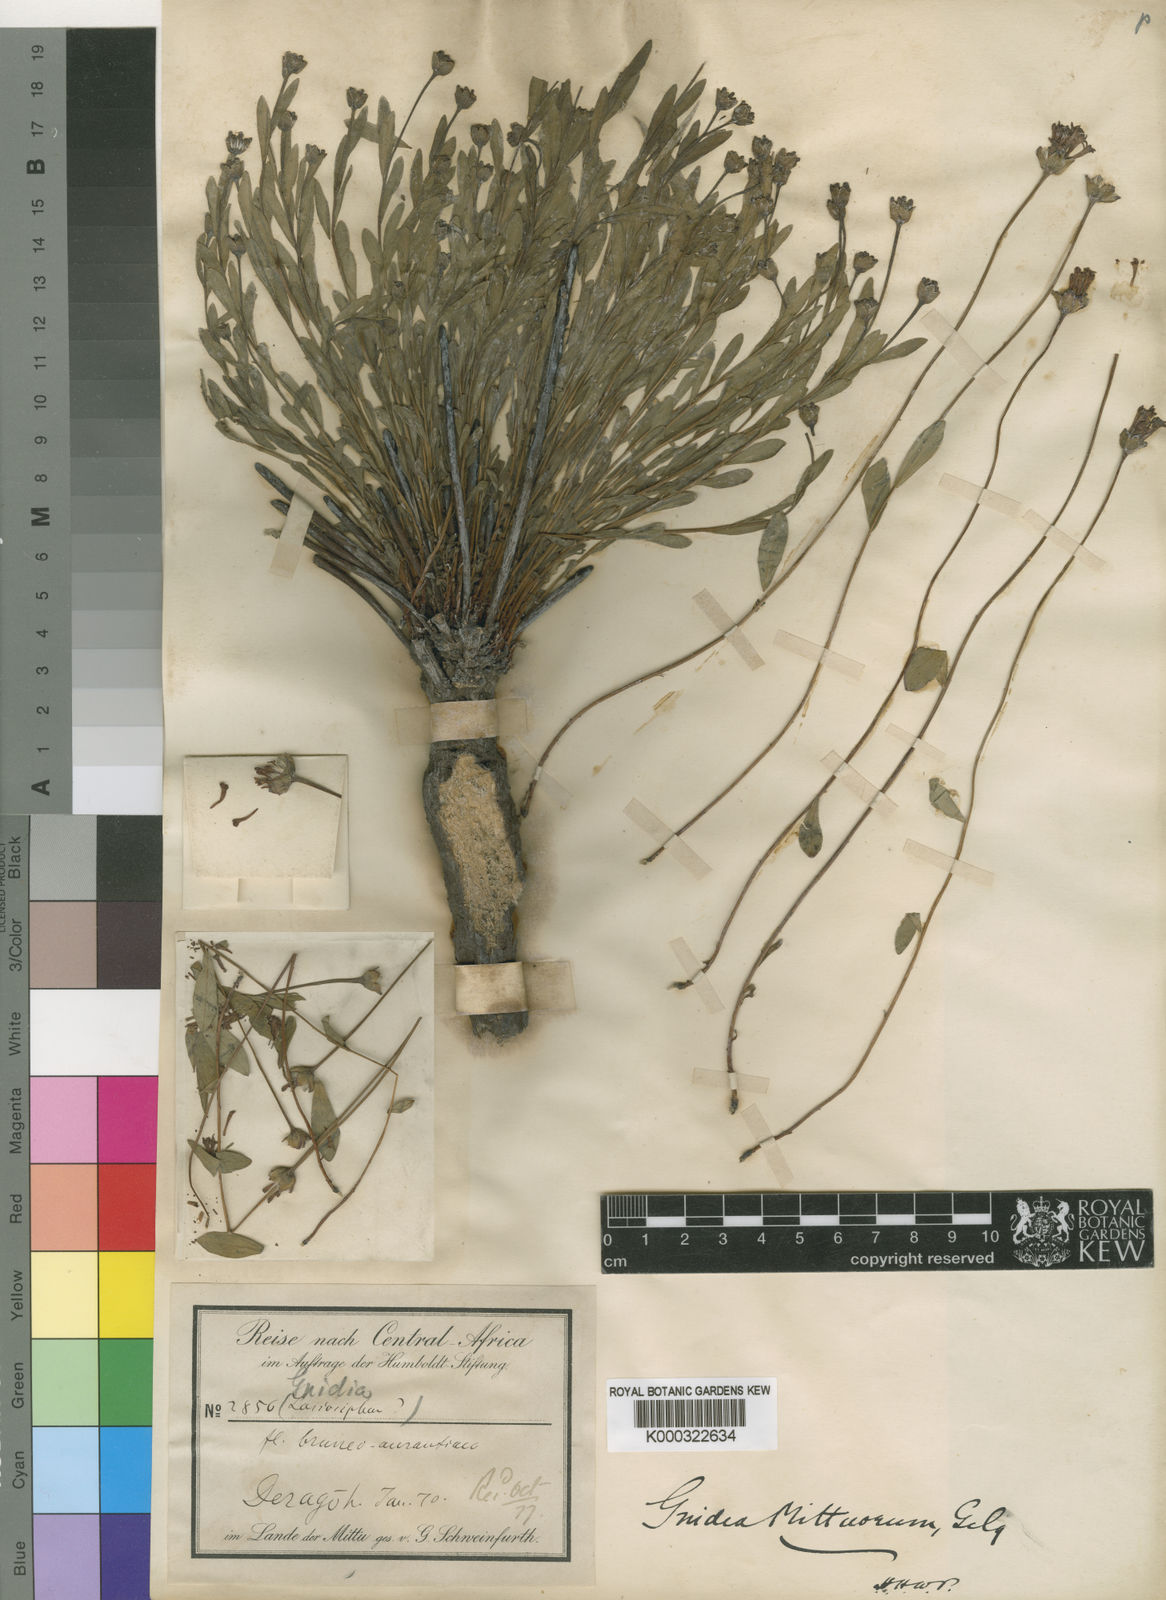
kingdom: Plantae
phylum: Tracheophyta
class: Magnoliopsida
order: Malvales
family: Thymelaeaceae
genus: Gnidia
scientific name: Gnidia involucrata
